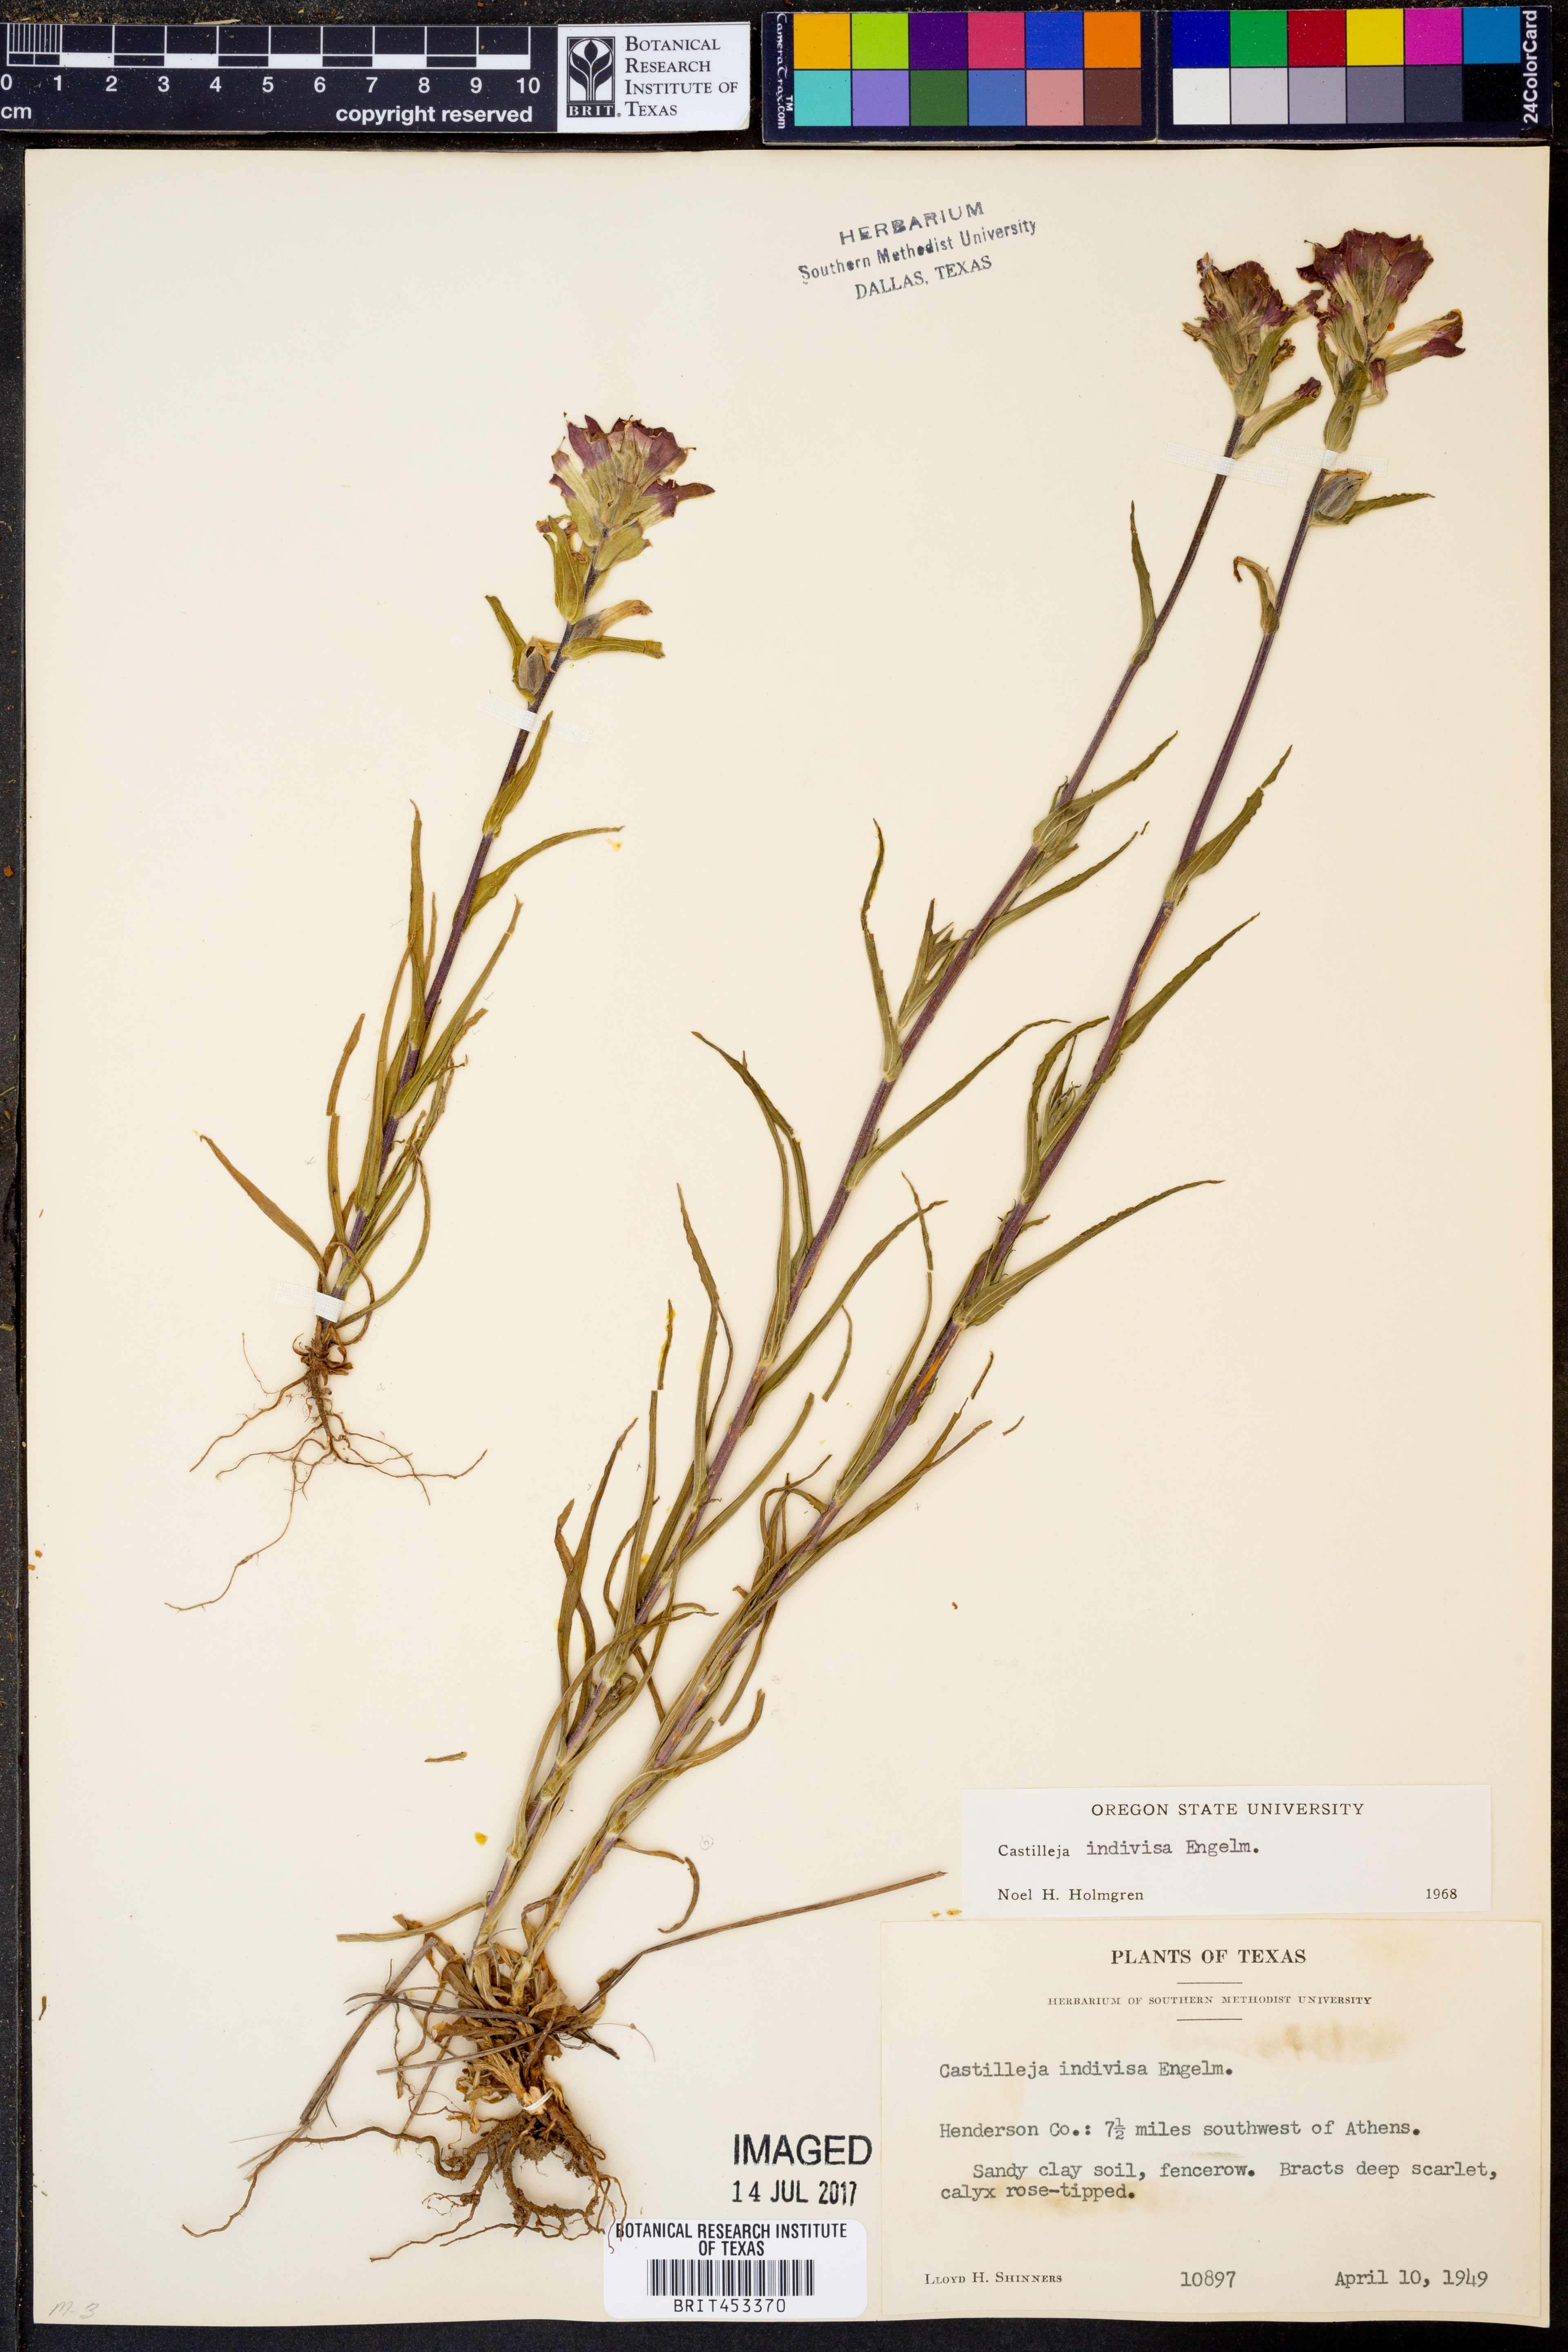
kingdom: Plantae
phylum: Tracheophyta
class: Magnoliopsida
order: Lamiales
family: Orobanchaceae
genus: Castilleja
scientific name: Castilleja indivisa
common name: Texas paintbrush
